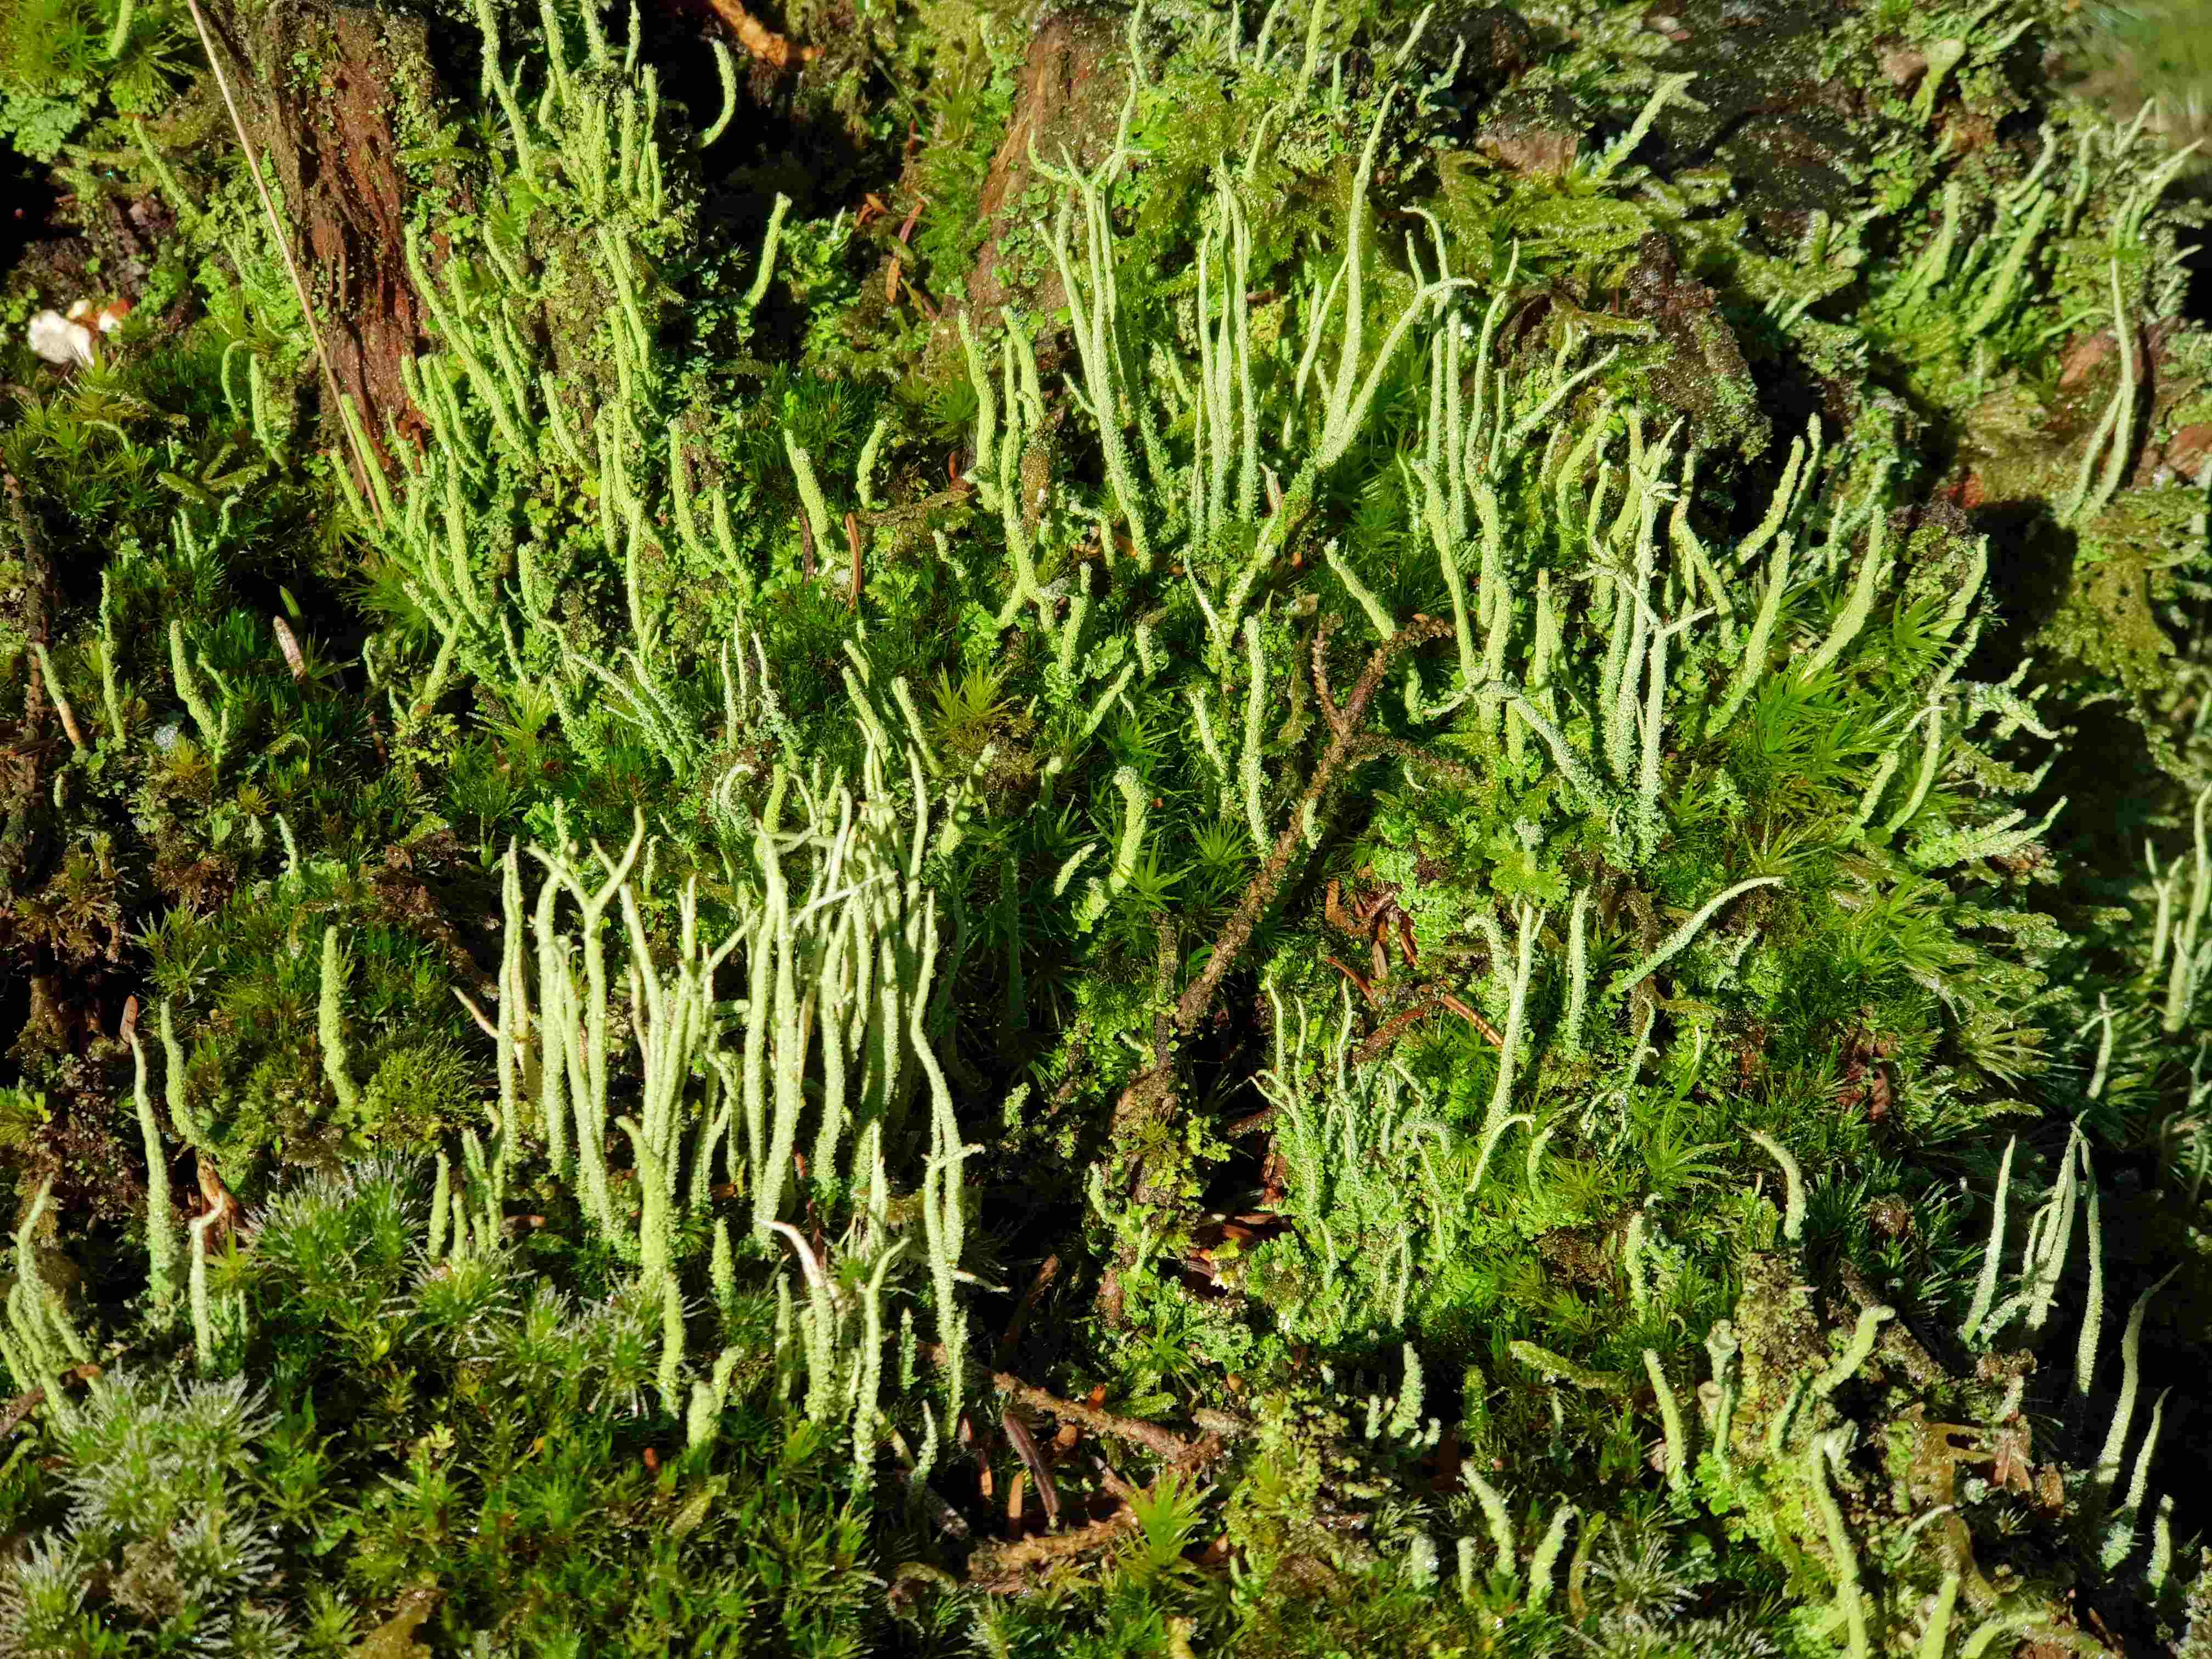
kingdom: Fungi
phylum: Ascomycota
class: Lecanoromycetes
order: Lecanorales
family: Cladoniaceae
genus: Cladonia
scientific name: Cladonia
